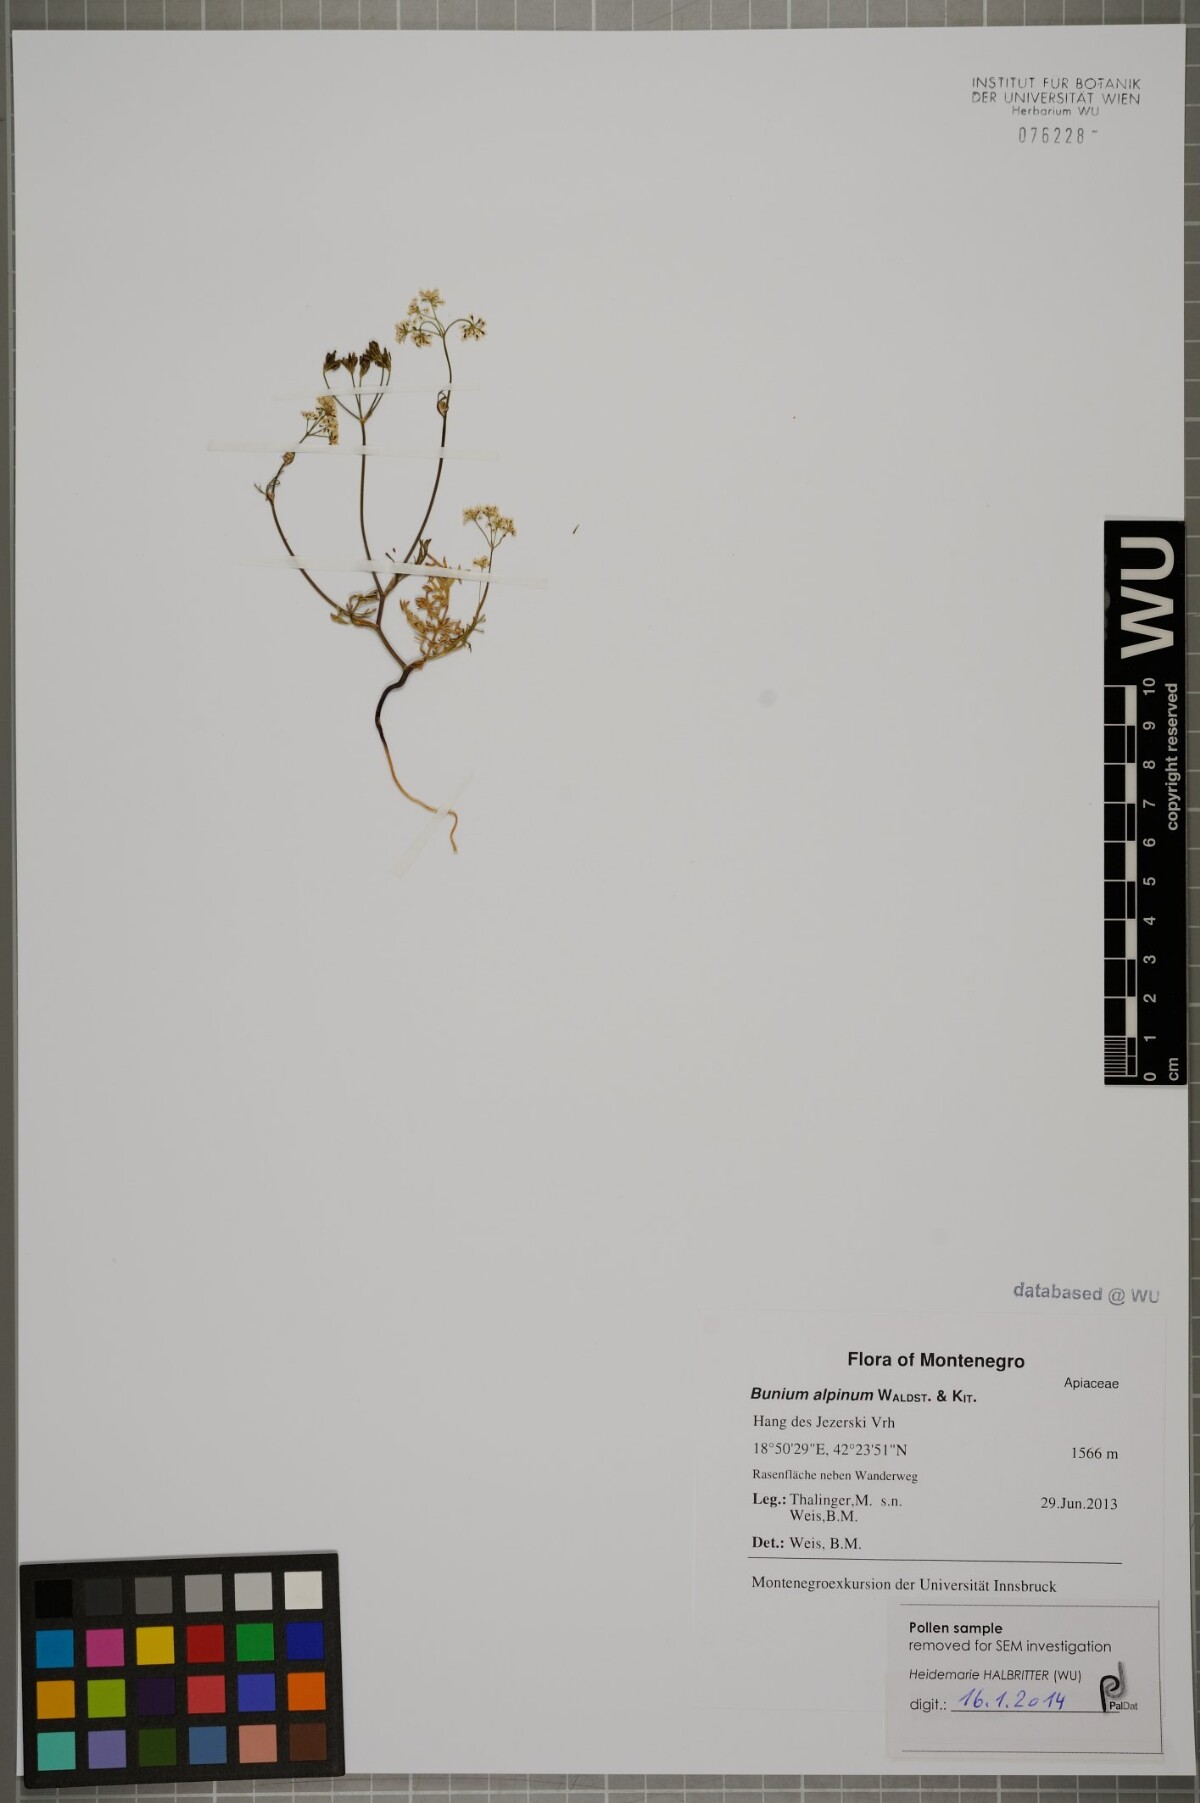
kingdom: Plantae
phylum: Tracheophyta
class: Magnoliopsida
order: Apiales
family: Apiaceae
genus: Bunium
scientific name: Bunium alpinum
